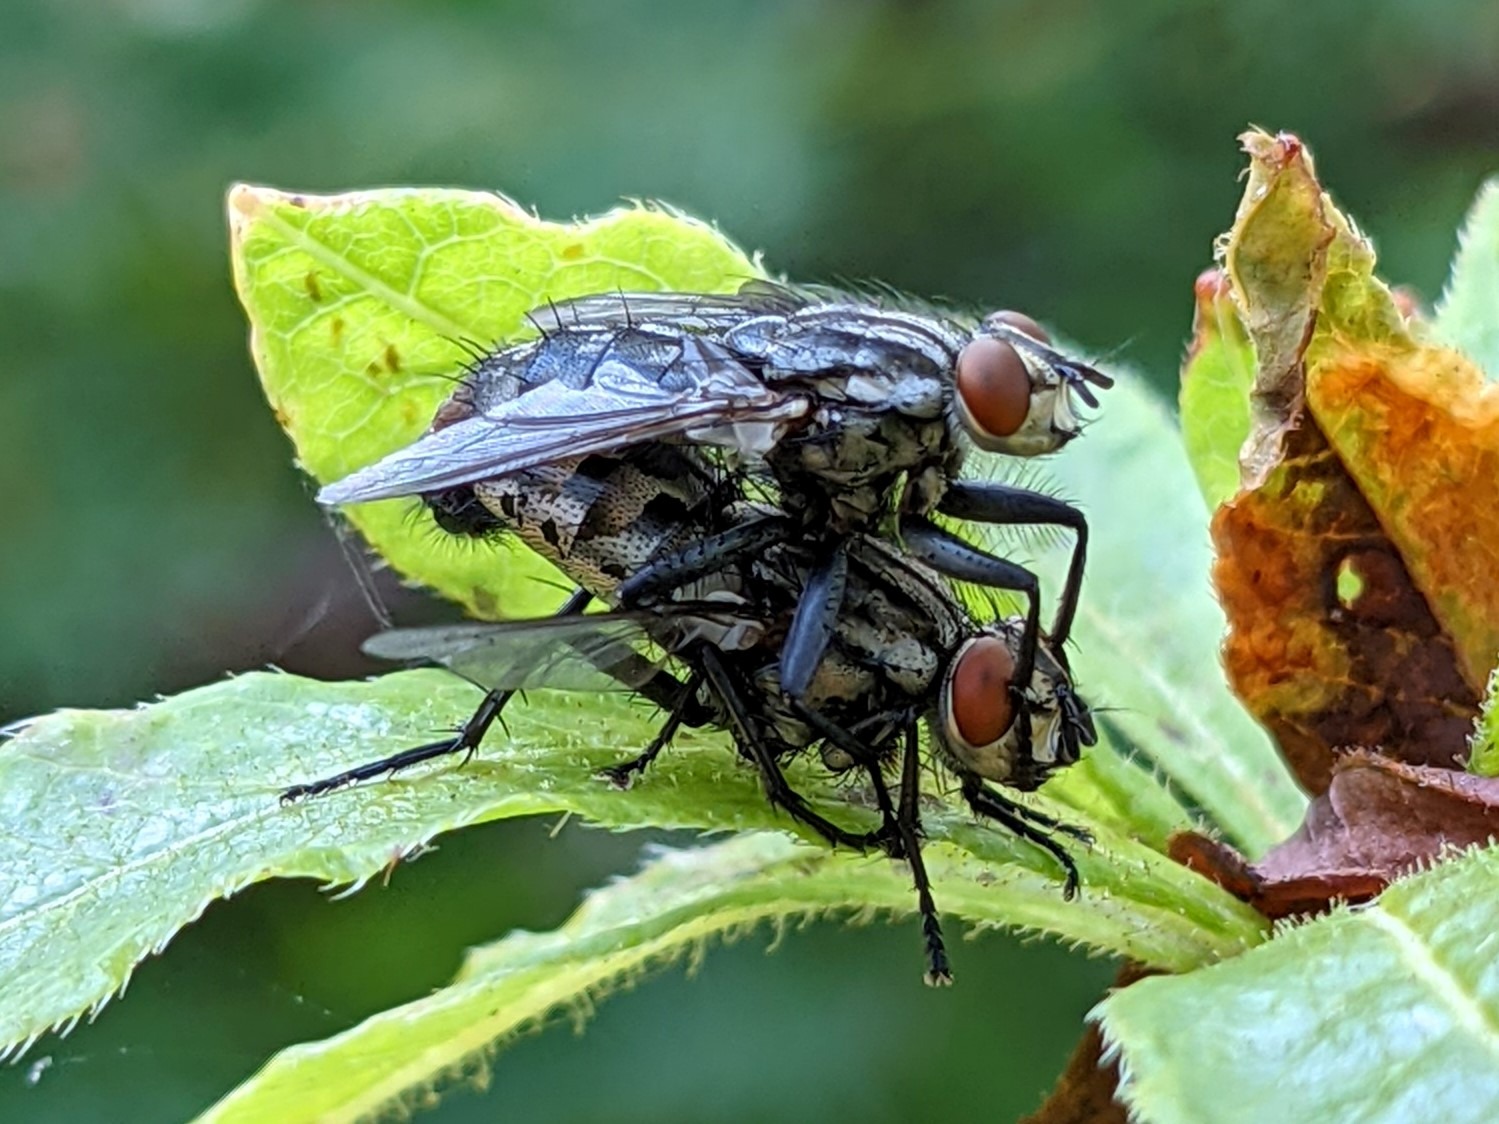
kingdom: Animalia
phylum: Arthropoda
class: Insecta
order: Diptera
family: Sarcophagidae
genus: Sarcophaga
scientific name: Sarcophaga
